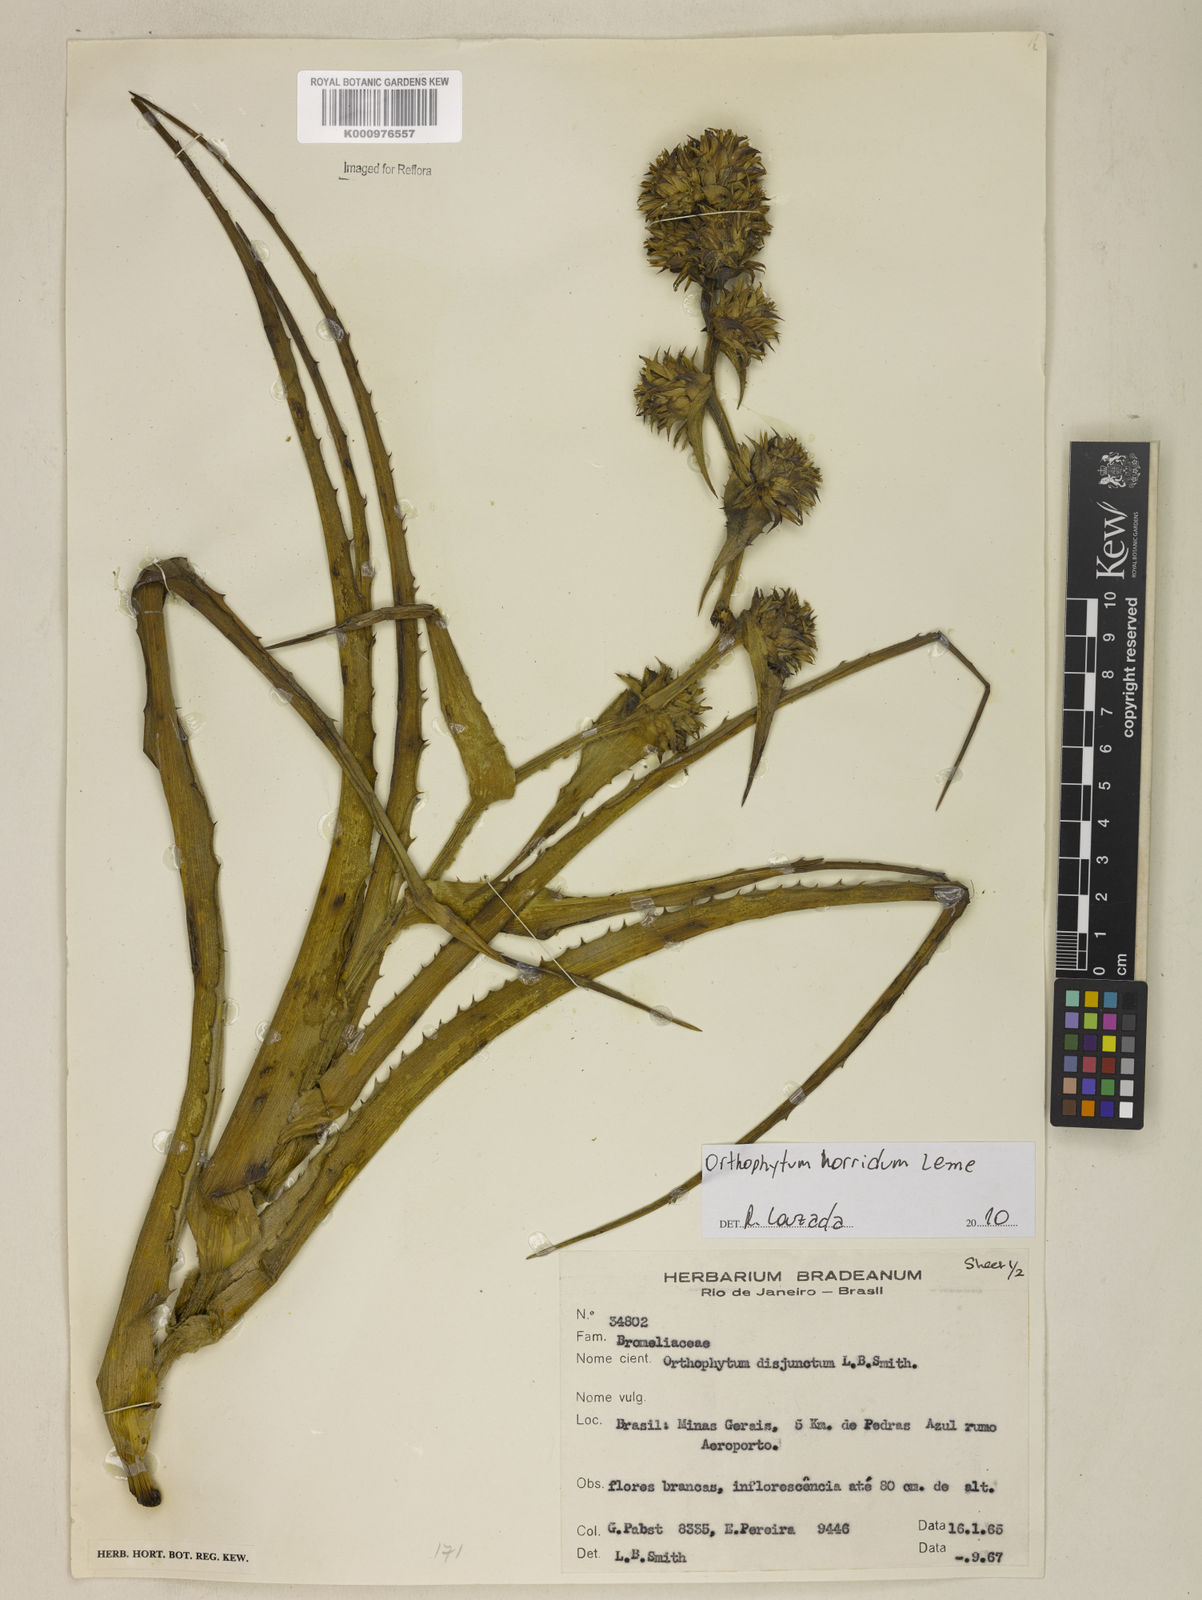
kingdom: Plantae
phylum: Tracheophyta
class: Liliopsida
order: Poales
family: Bromeliaceae
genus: Orthophytum
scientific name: Orthophytum disjunctum
